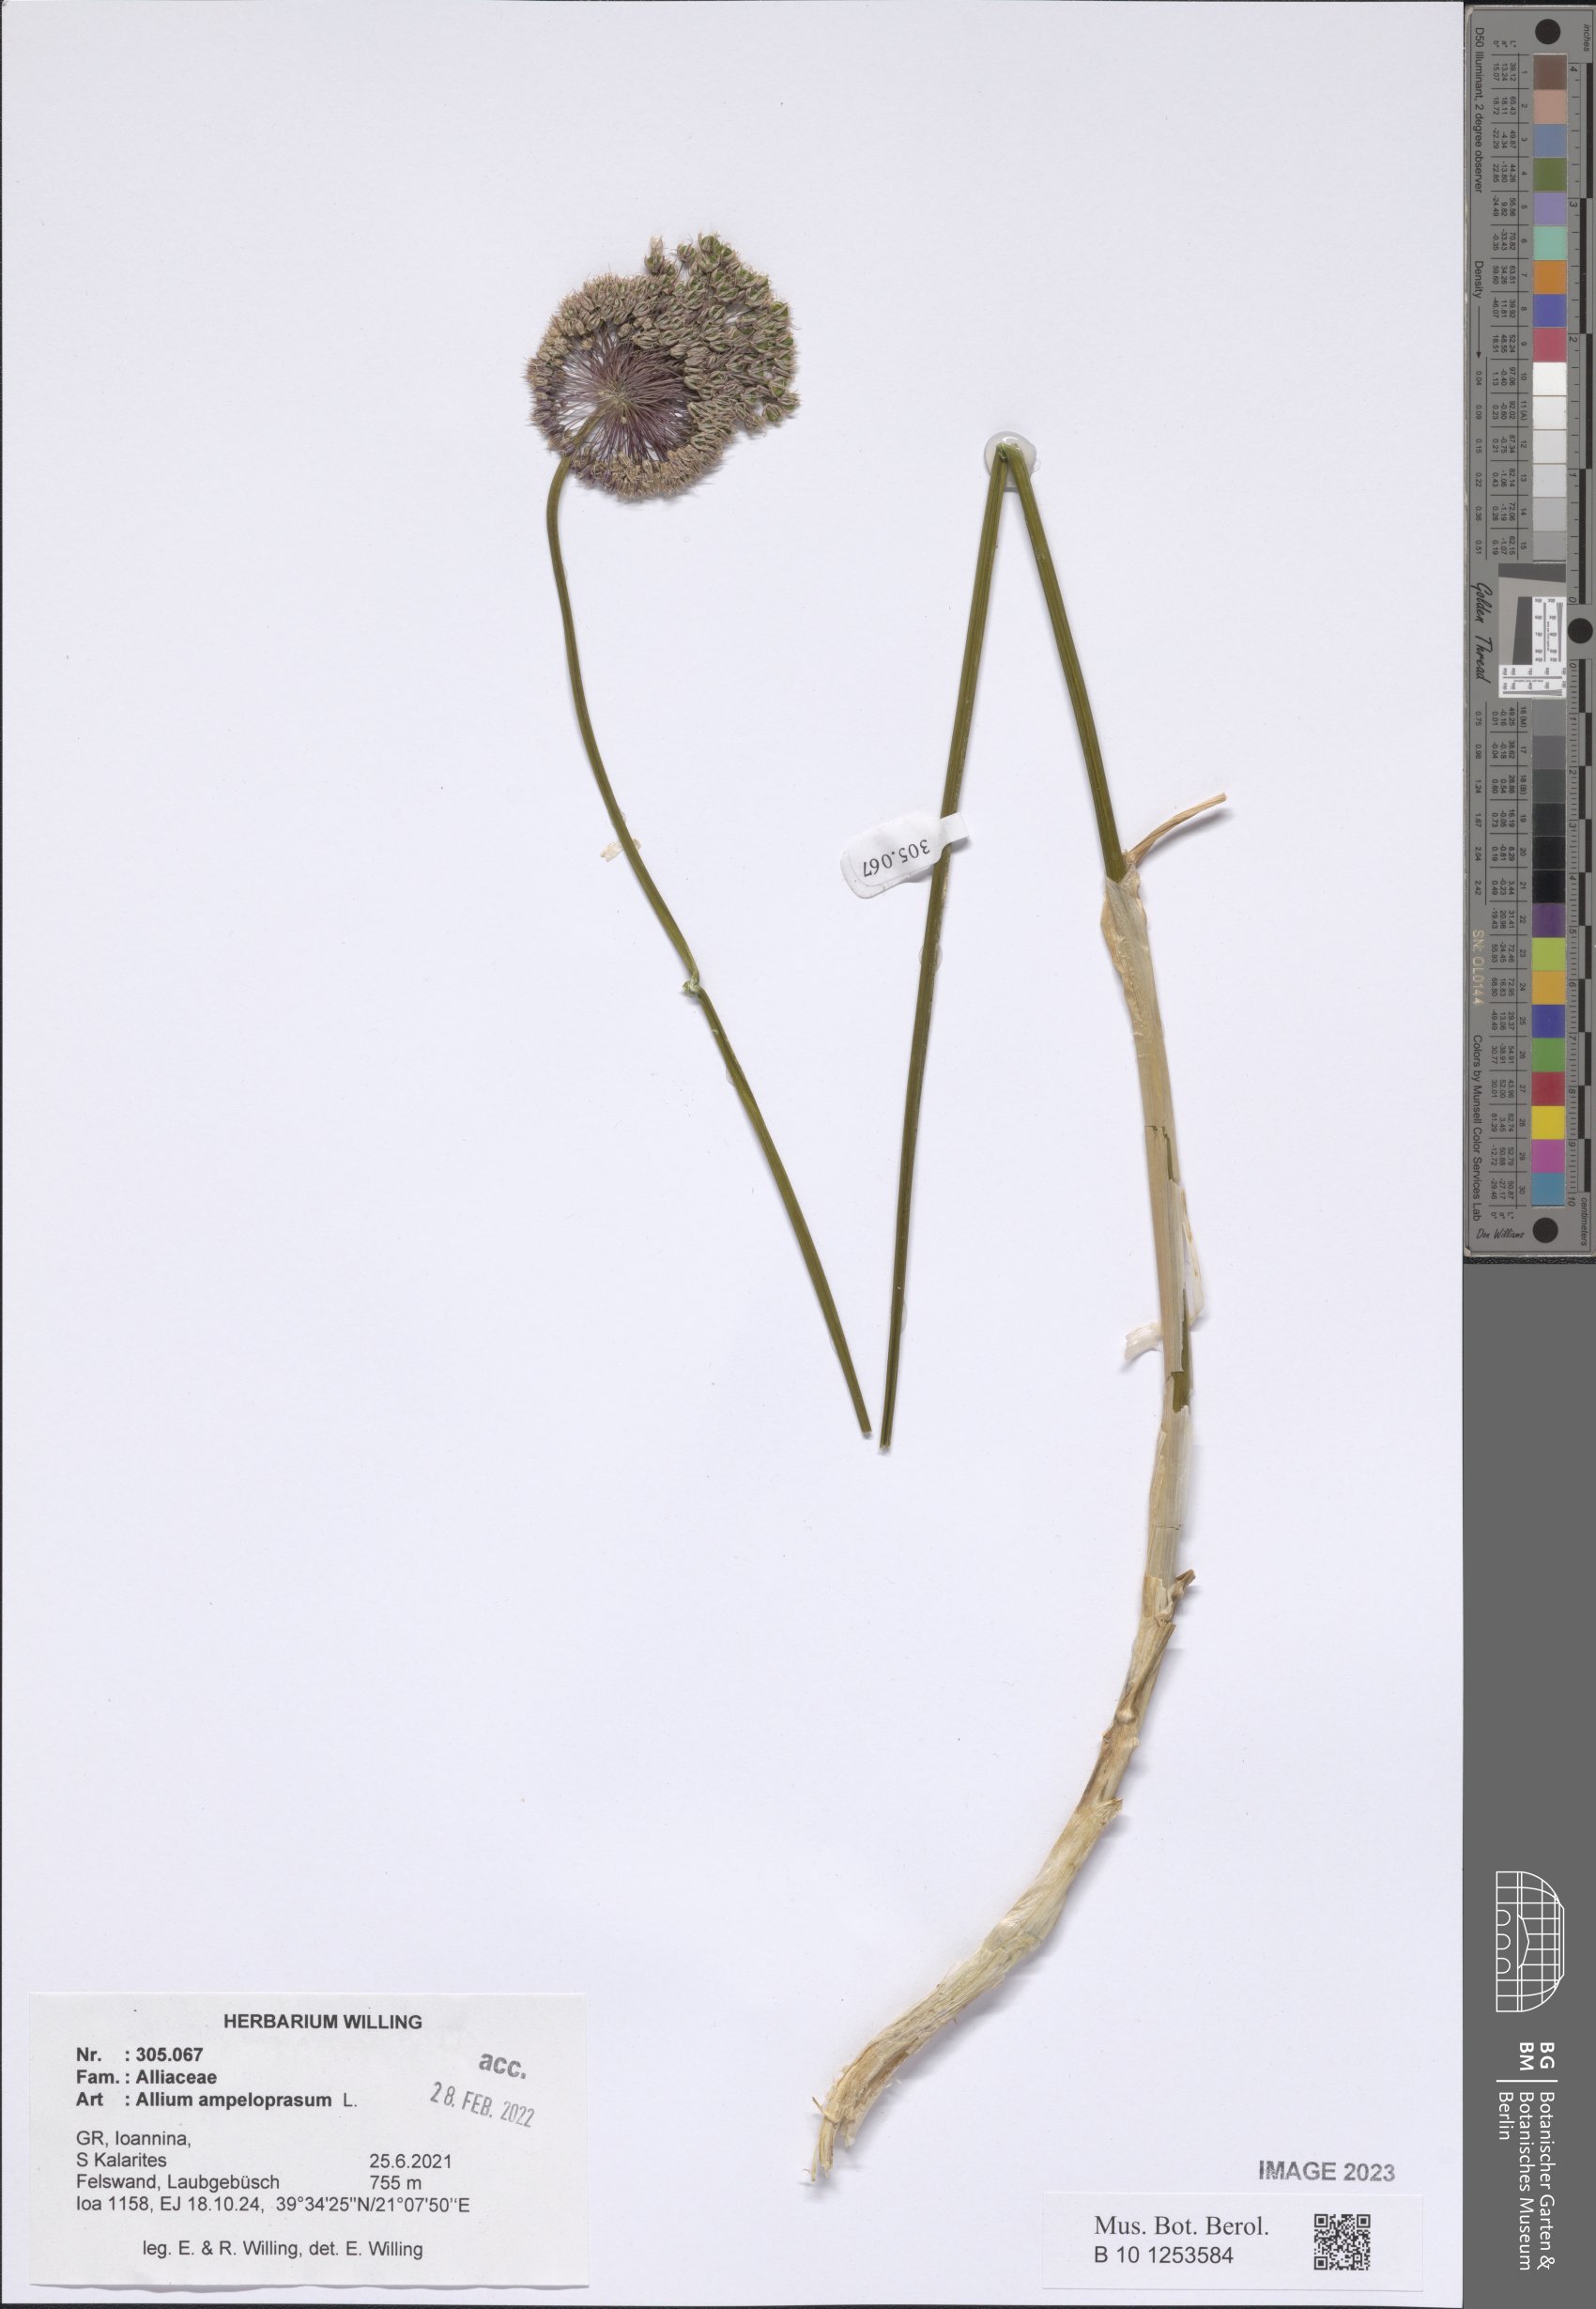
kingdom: Plantae
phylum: Tracheophyta
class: Liliopsida
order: Asparagales
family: Amaryllidaceae
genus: Allium
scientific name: Allium ampeloprasum
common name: Wild leek
